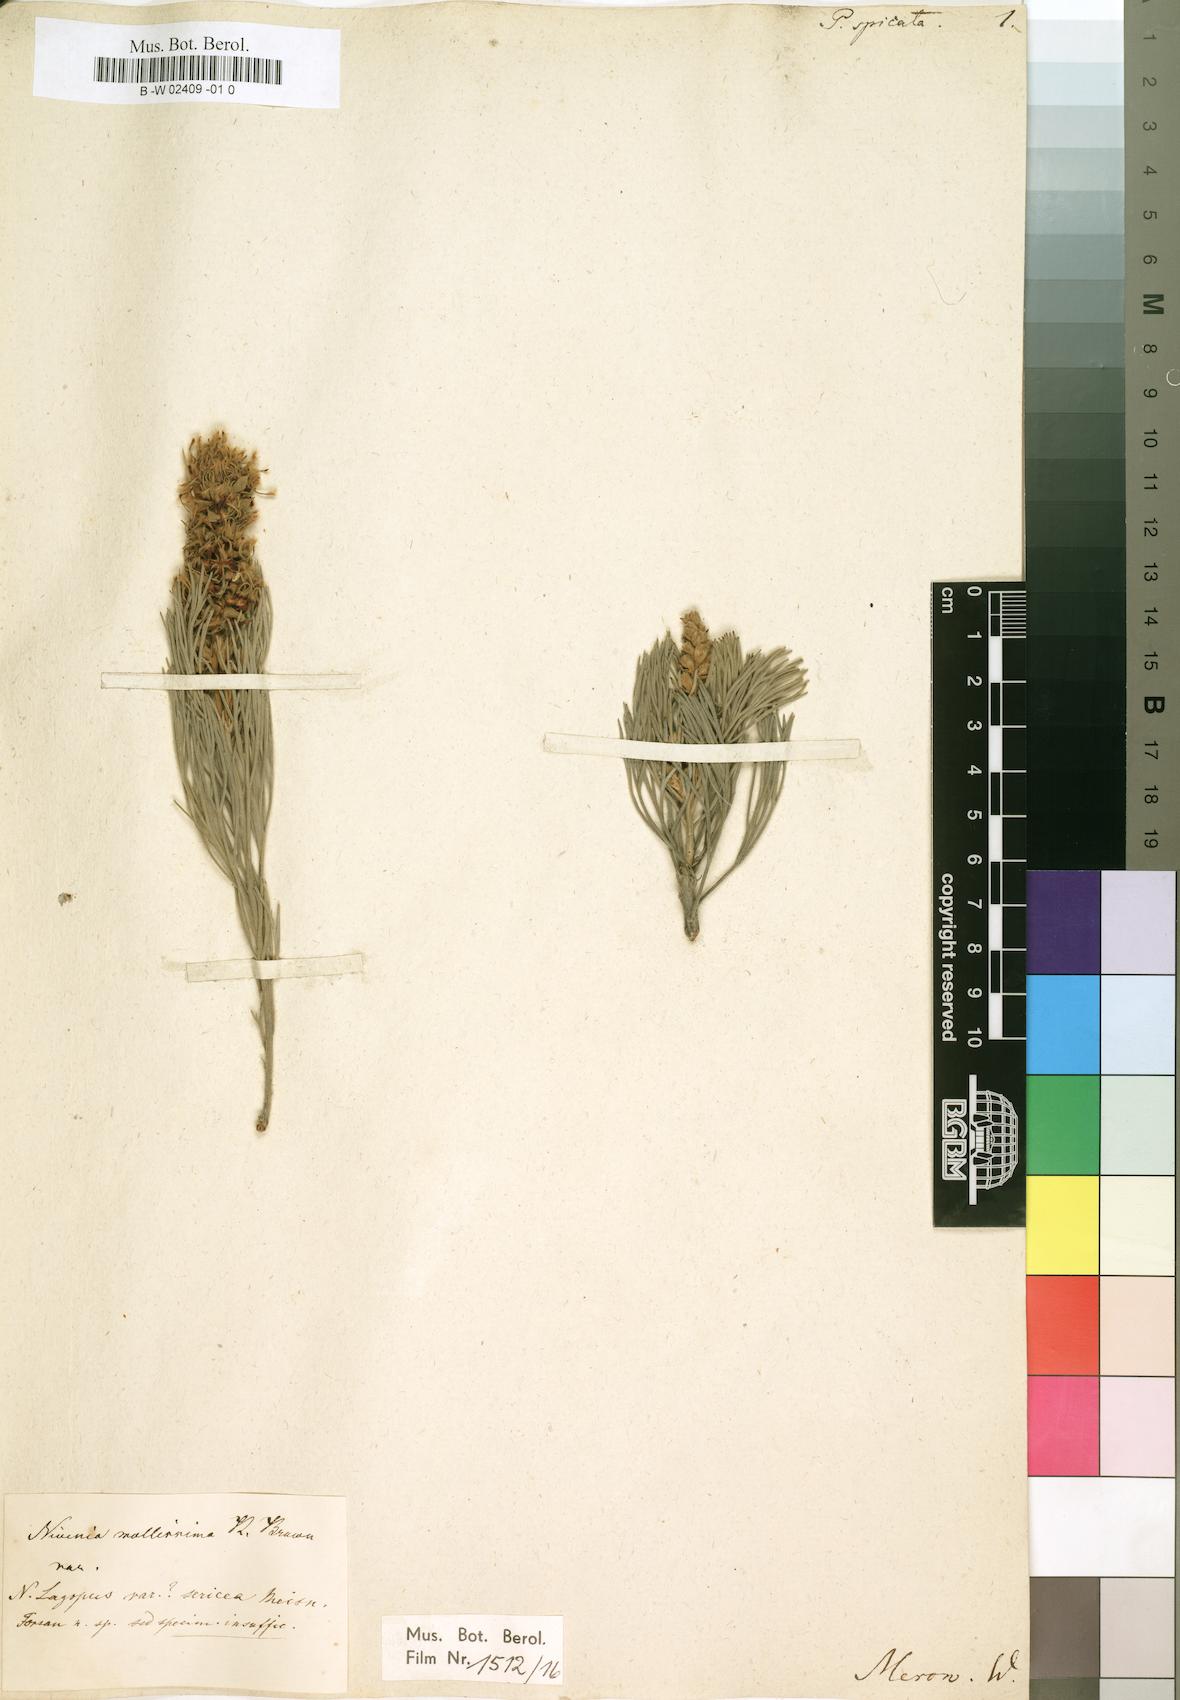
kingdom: Plantae
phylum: Tracheophyta
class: Magnoliopsida
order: Proteales
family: Proteaceae
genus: Paranomus
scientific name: Paranomus
